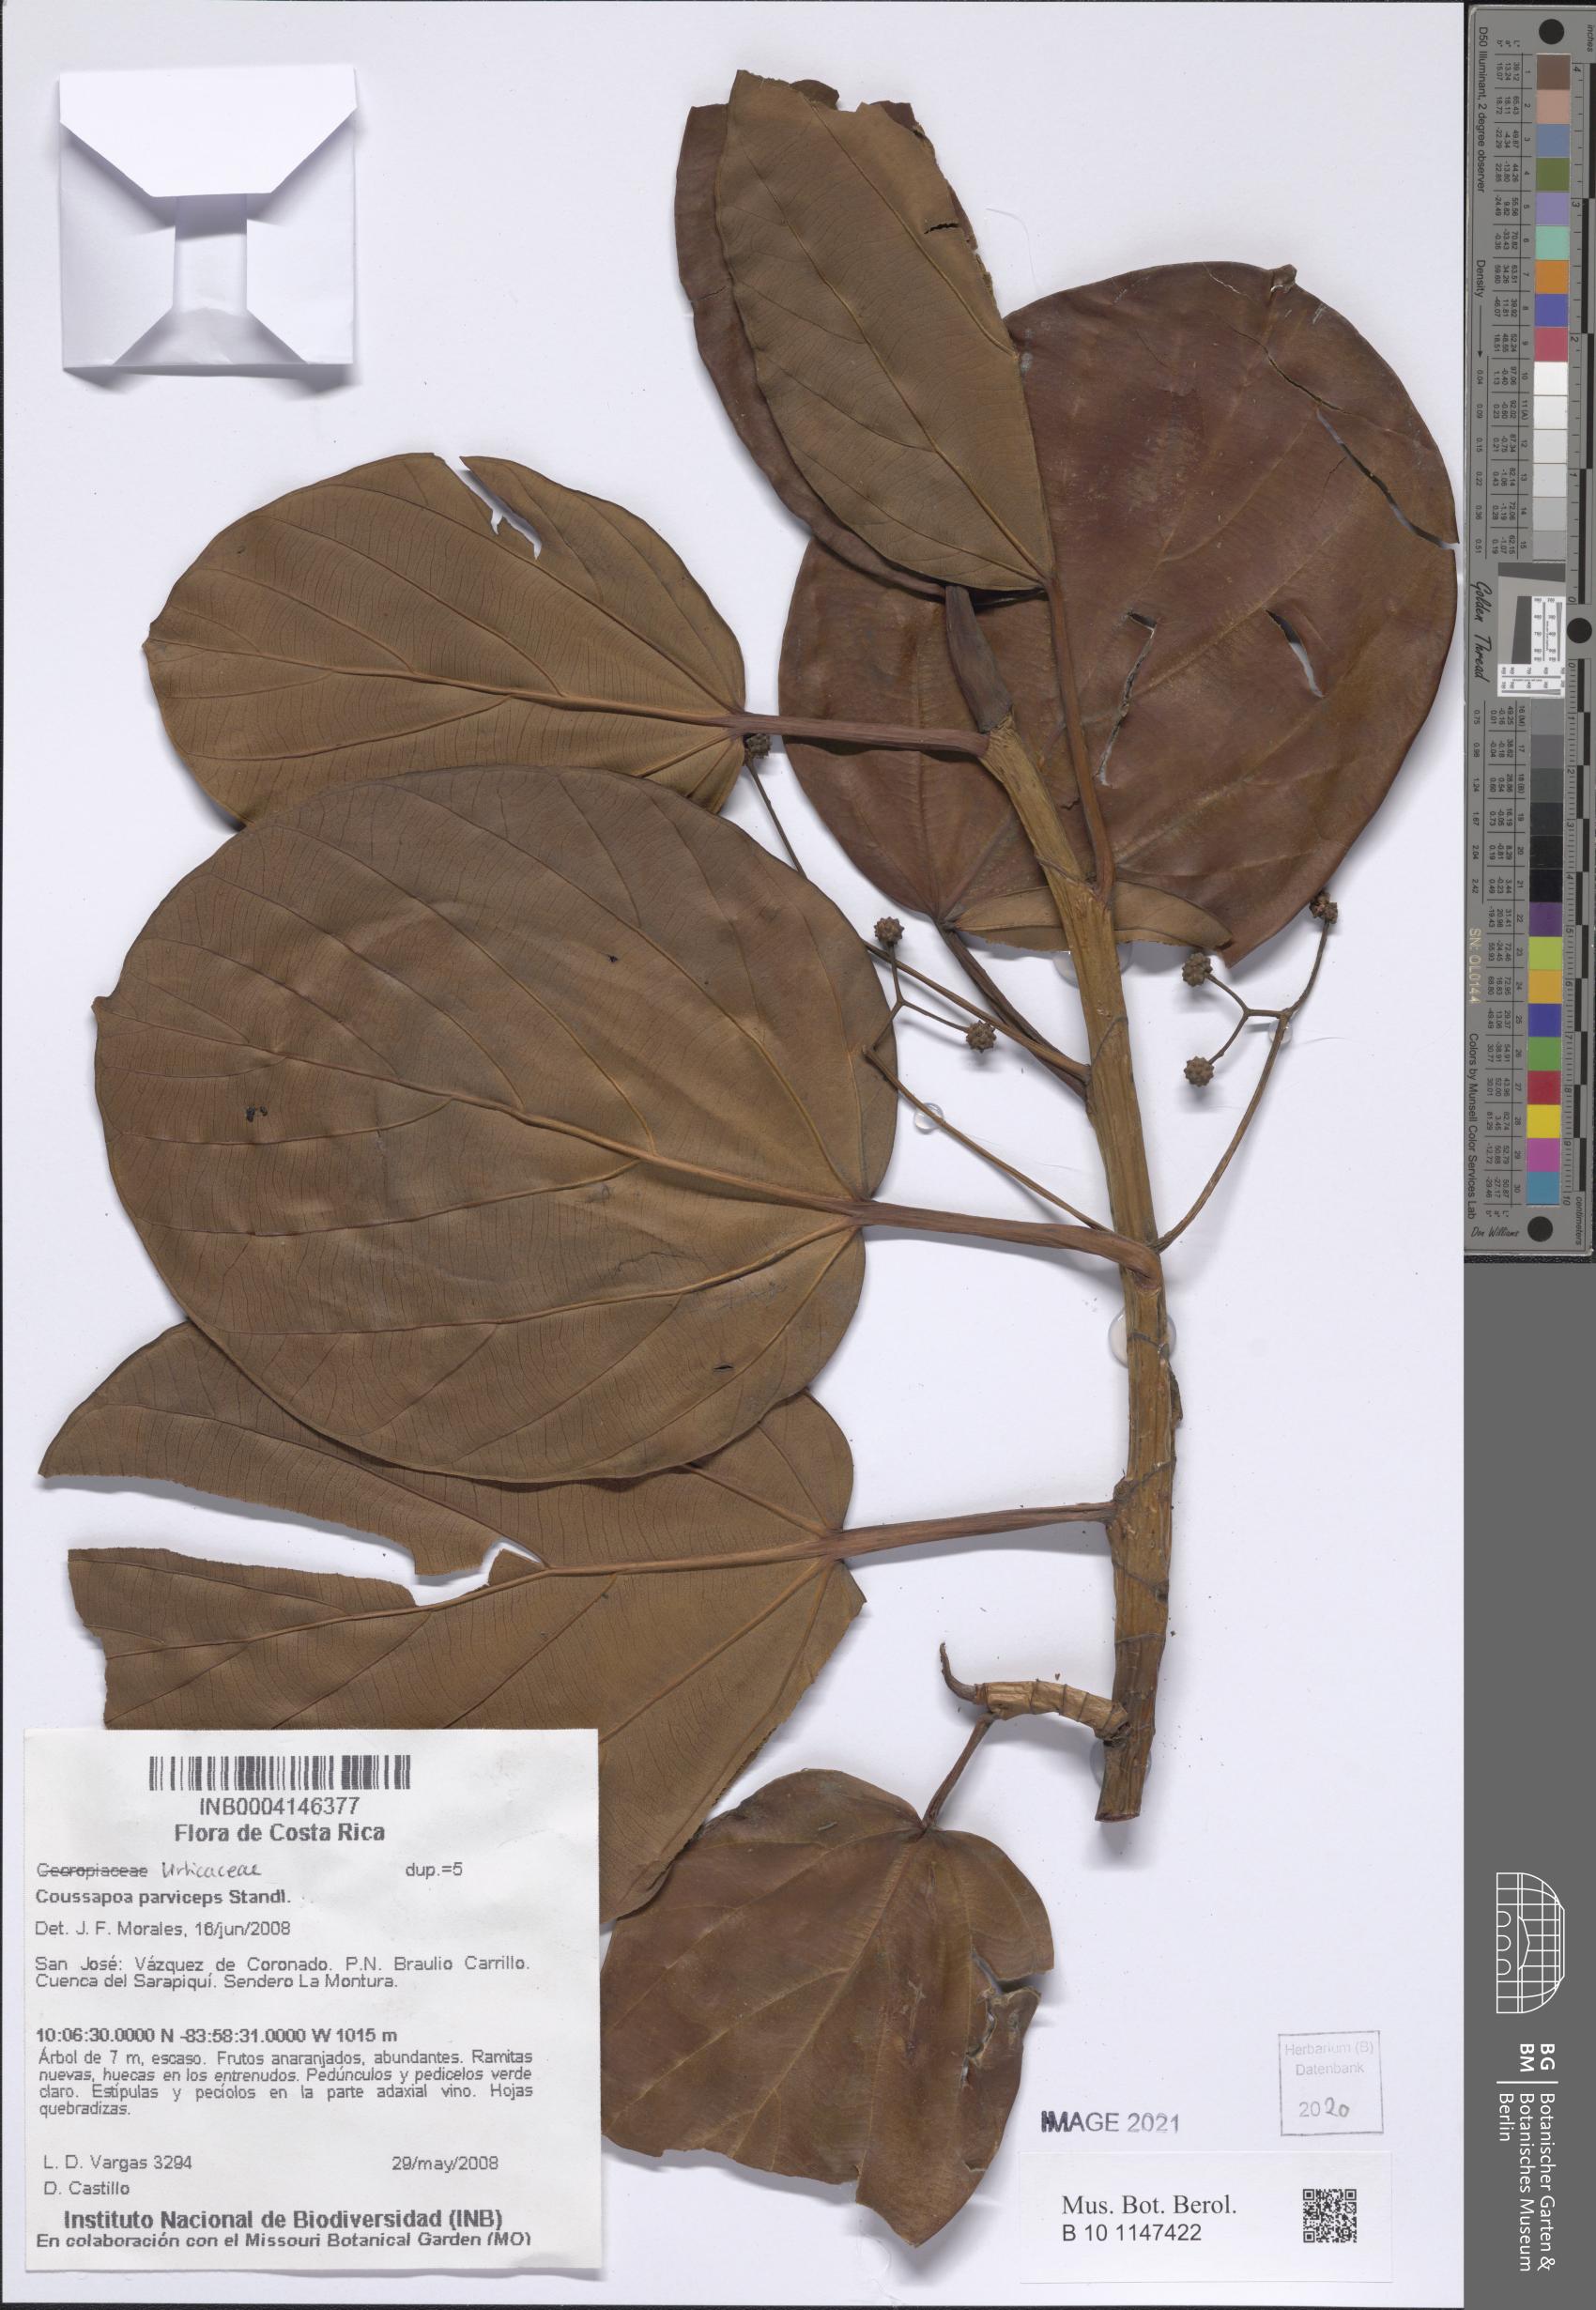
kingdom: Plantae
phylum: Tracheophyta
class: Magnoliopsida
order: Rosales
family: Urticaceae
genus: Coussapoa
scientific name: Coussapoa parviceps
